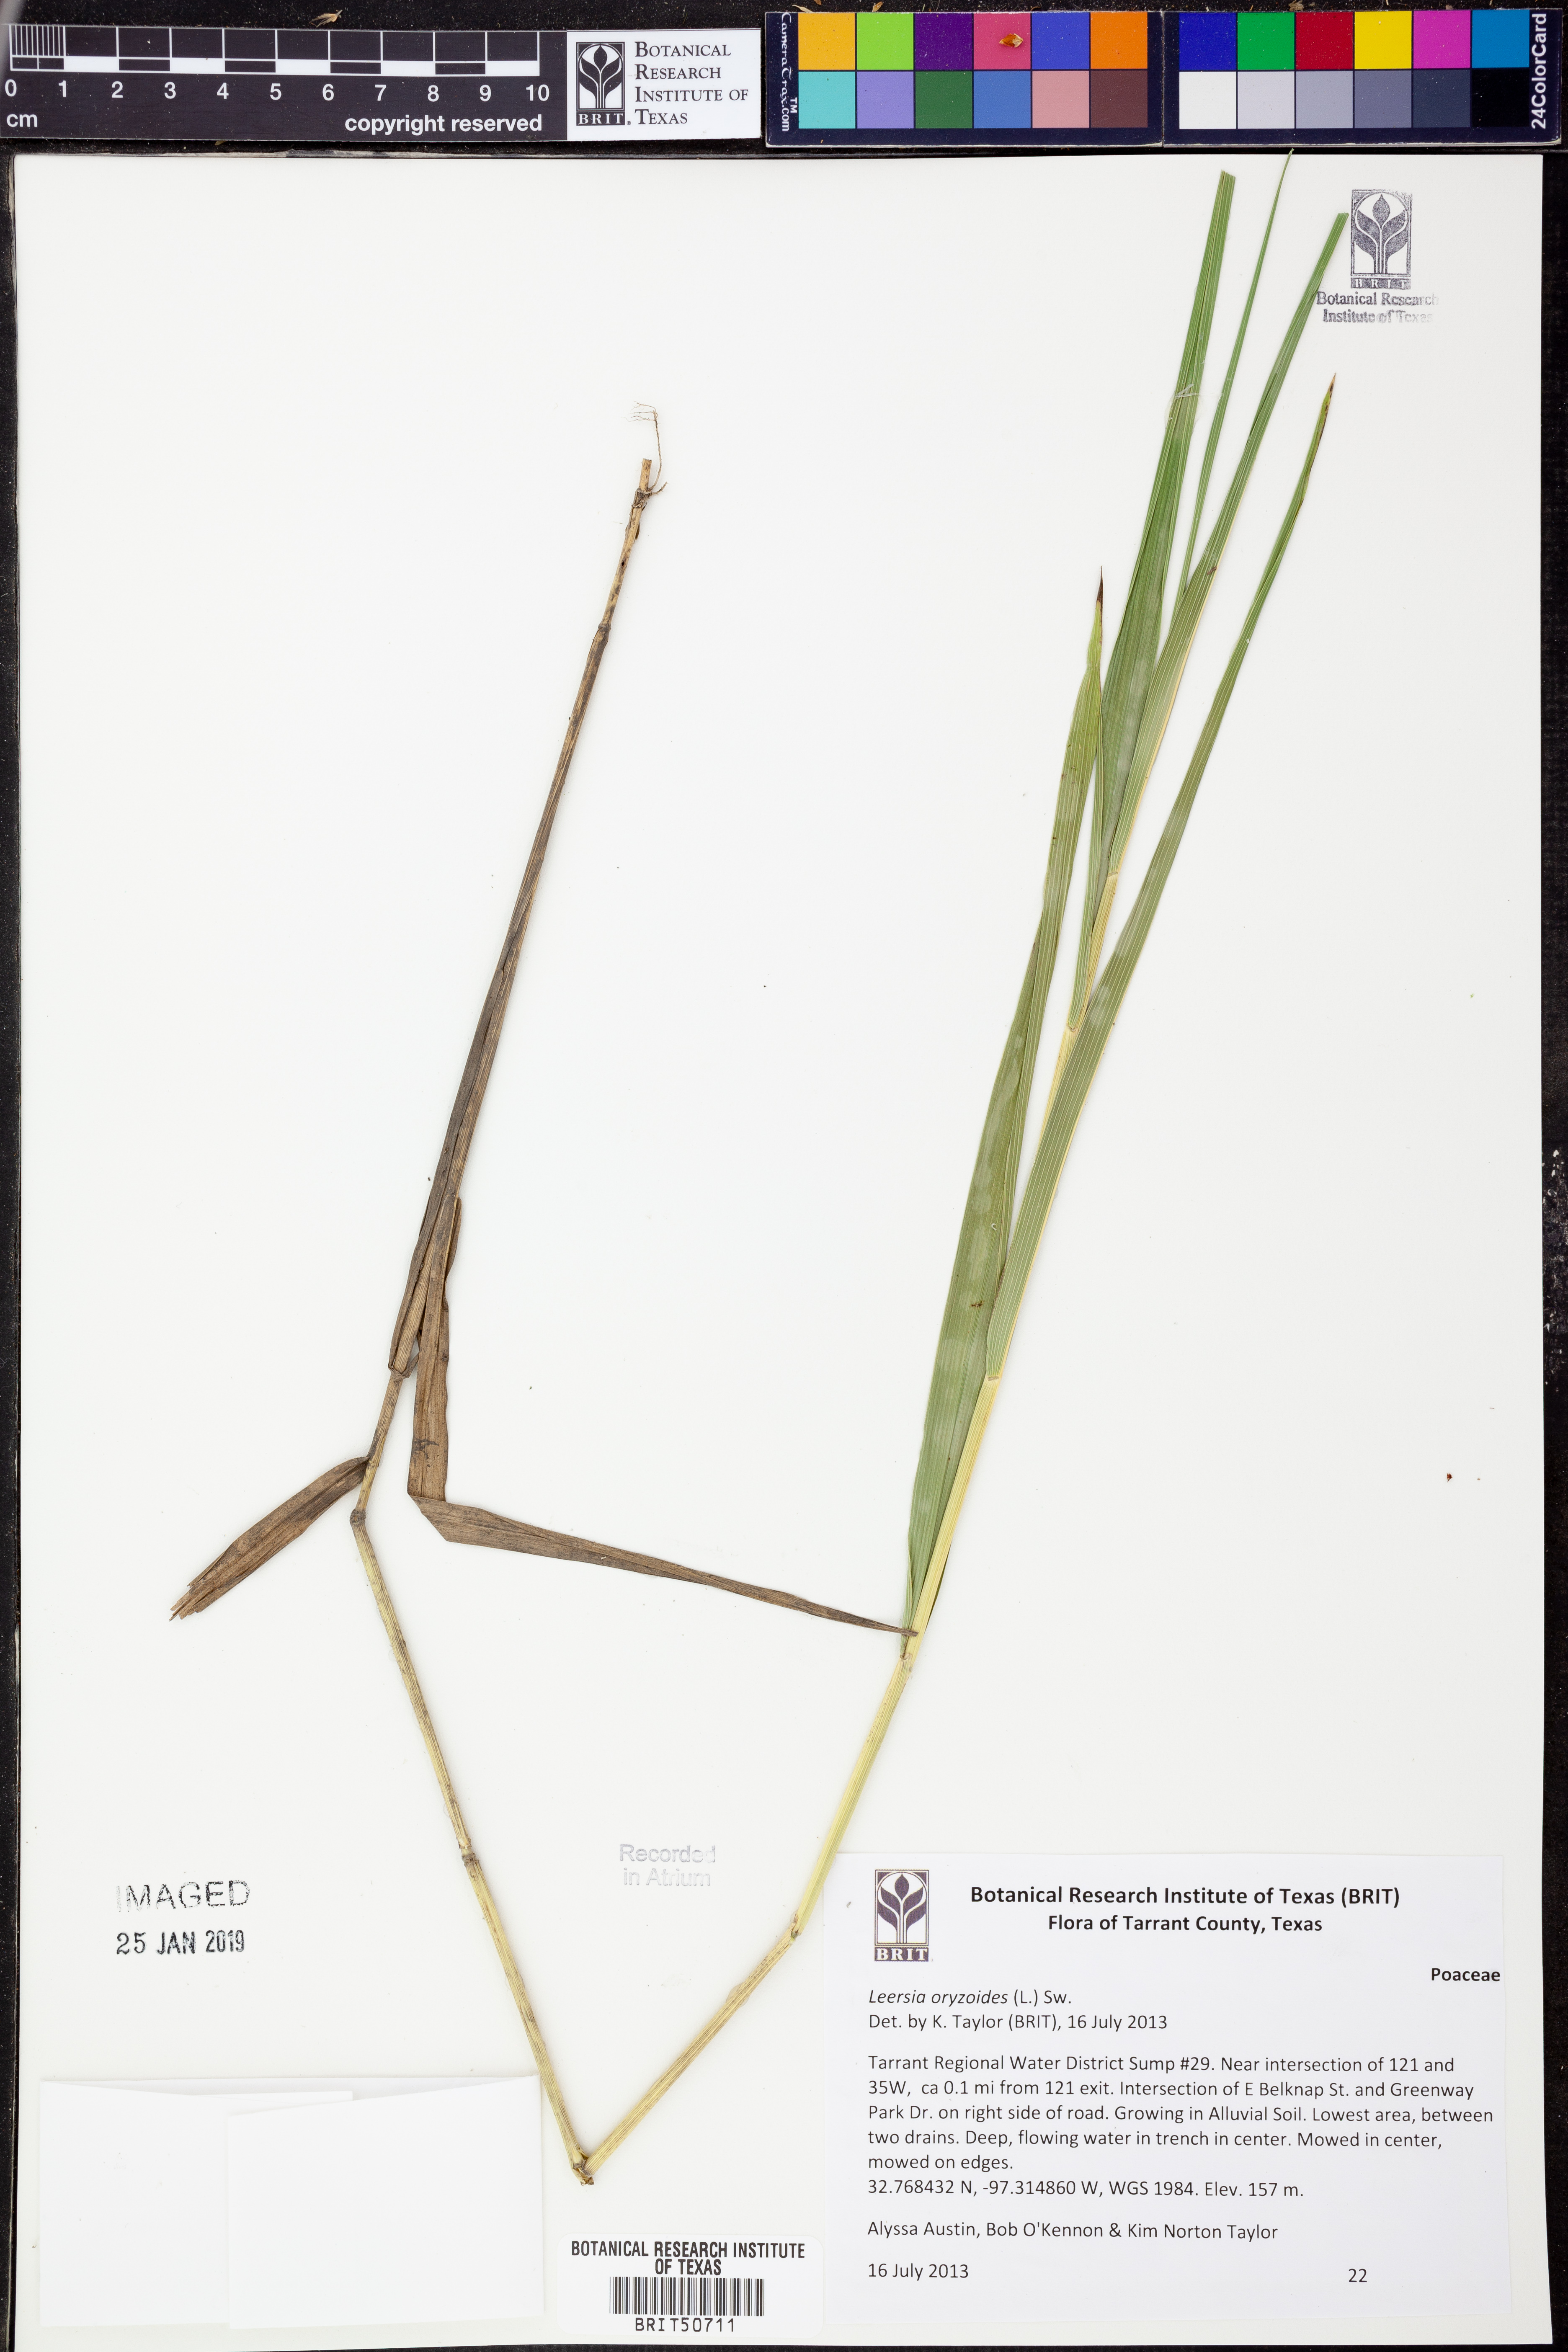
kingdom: Plantae
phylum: Tracheophyta
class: Liliopsida
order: Poales
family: Poaceae
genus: Leersia
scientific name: Leersia oryzoides
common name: Cut-grass
